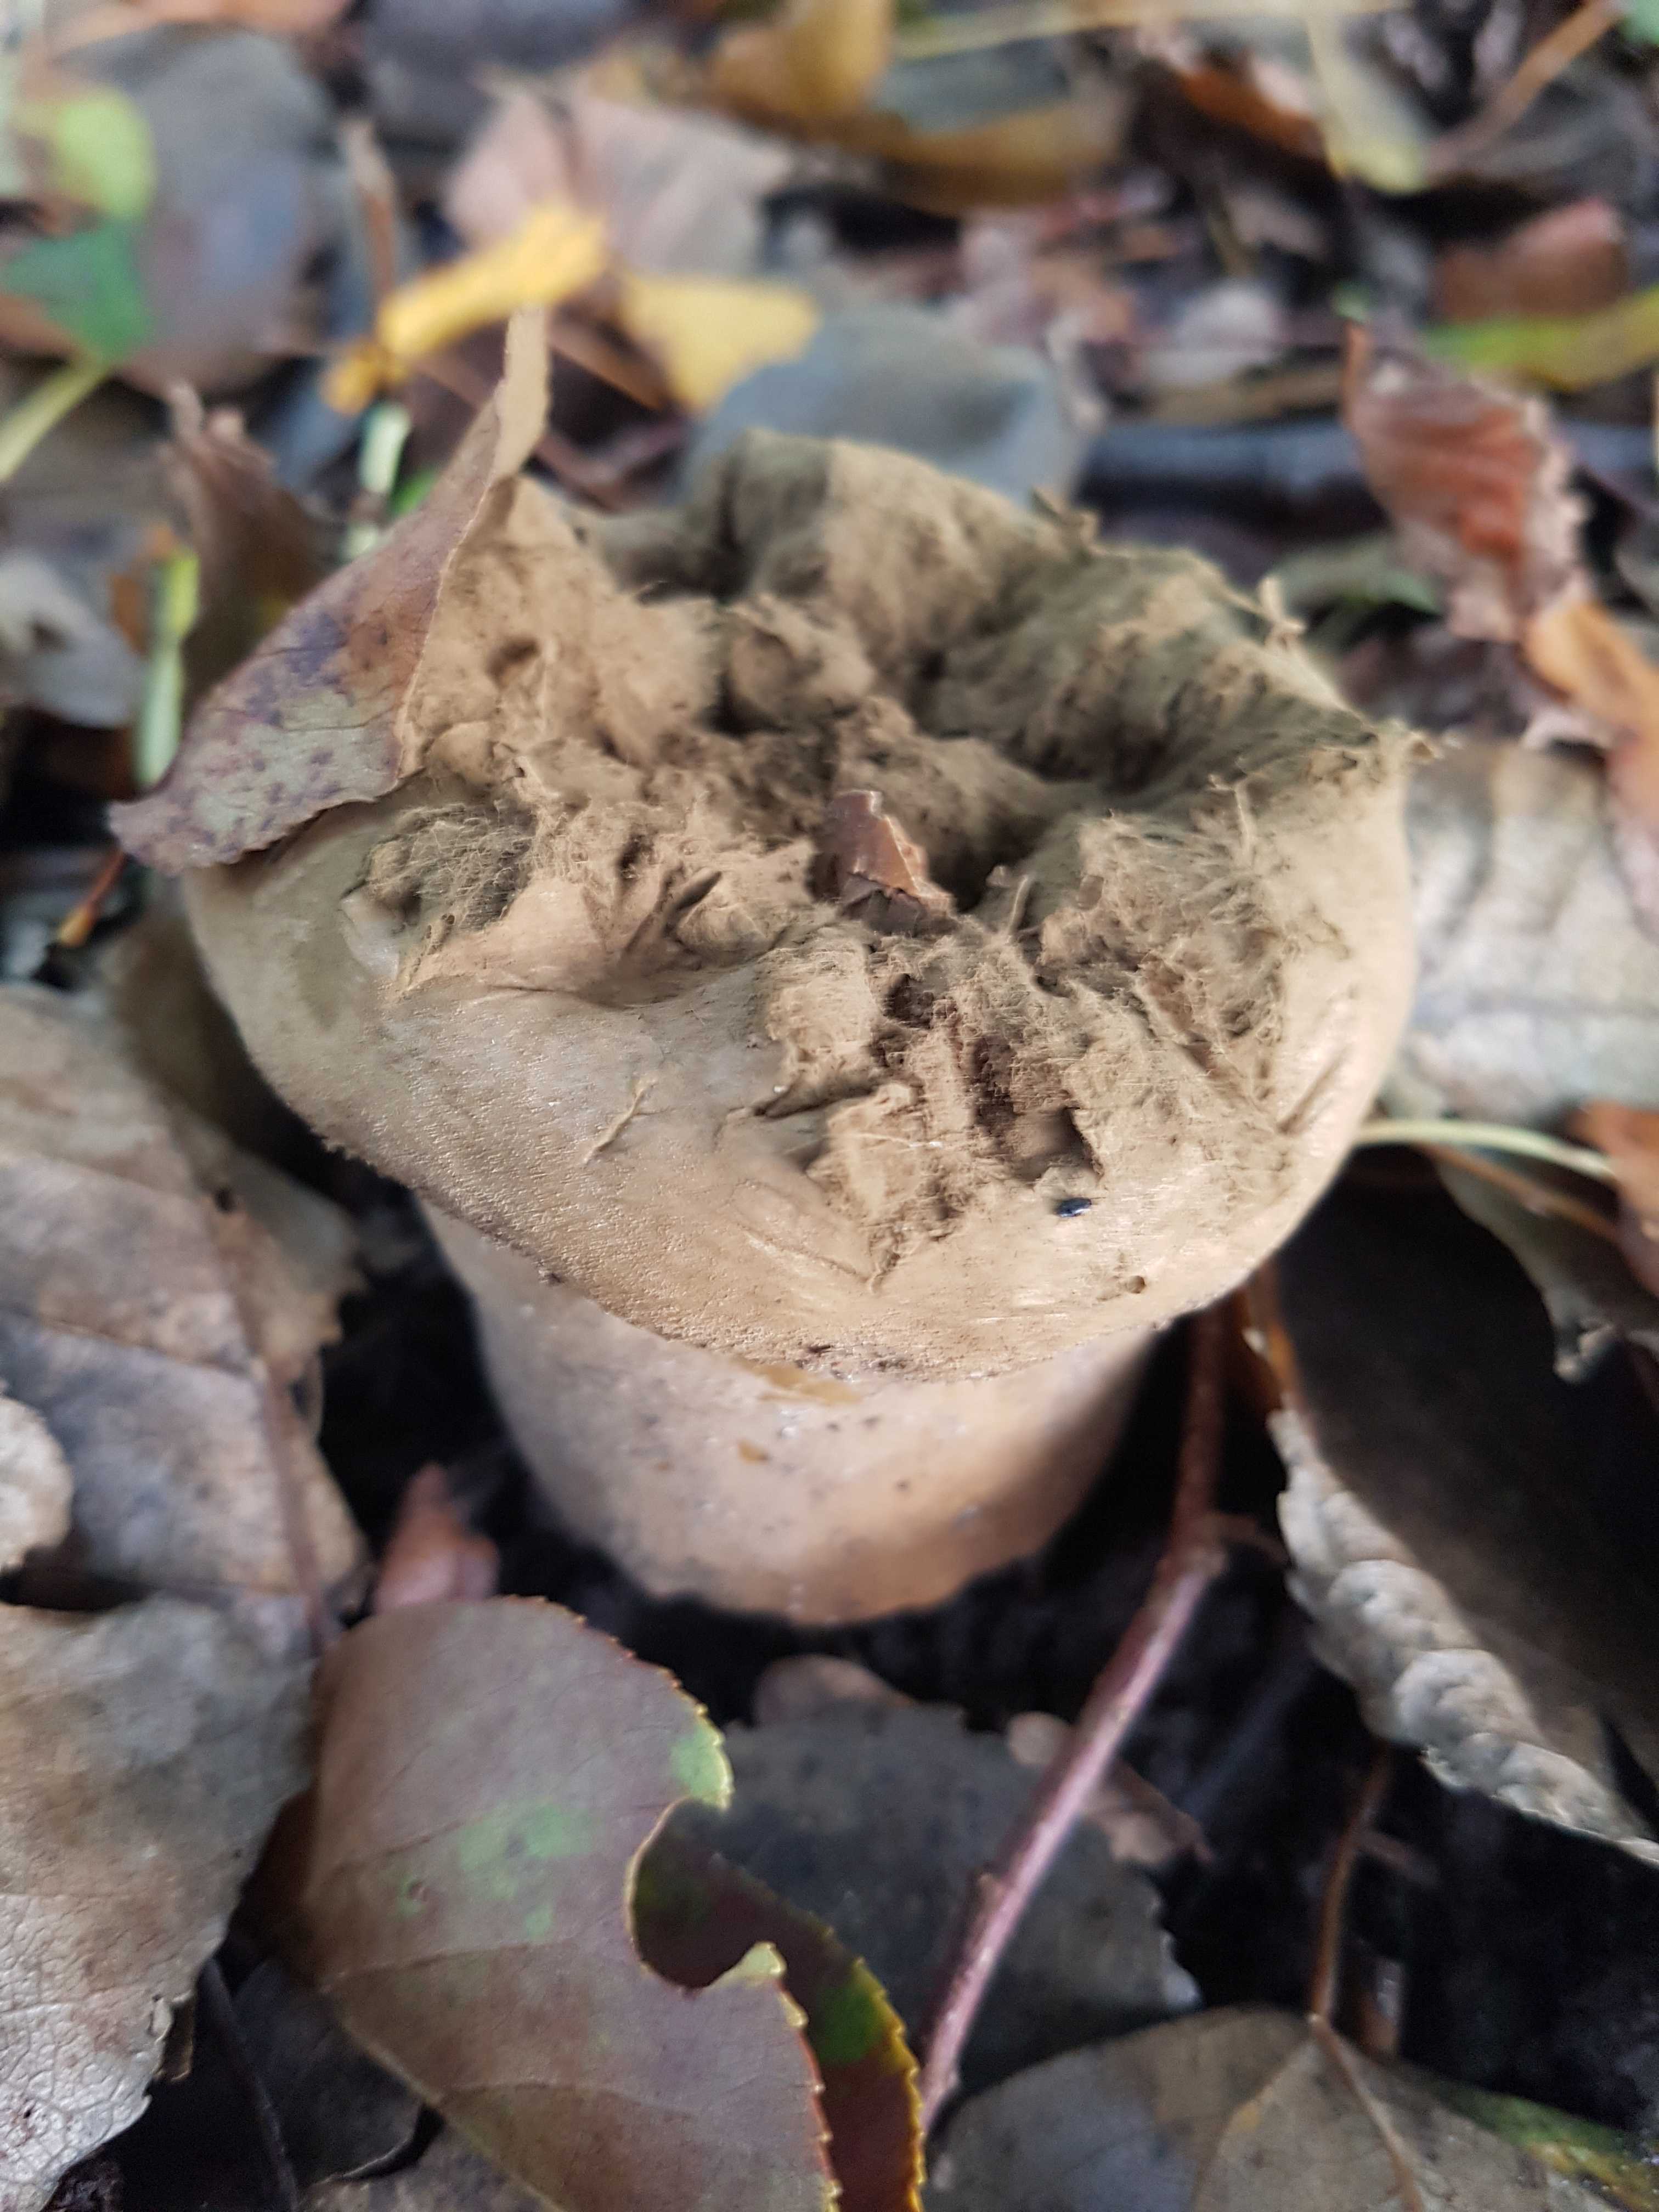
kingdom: Fungi
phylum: Basidiomycota
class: Agaricomycetes
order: Agaricales
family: Lycoperdaceae
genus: Lycoperdon
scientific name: Lycoperdon excipuliforme
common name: højstokket støvbold
